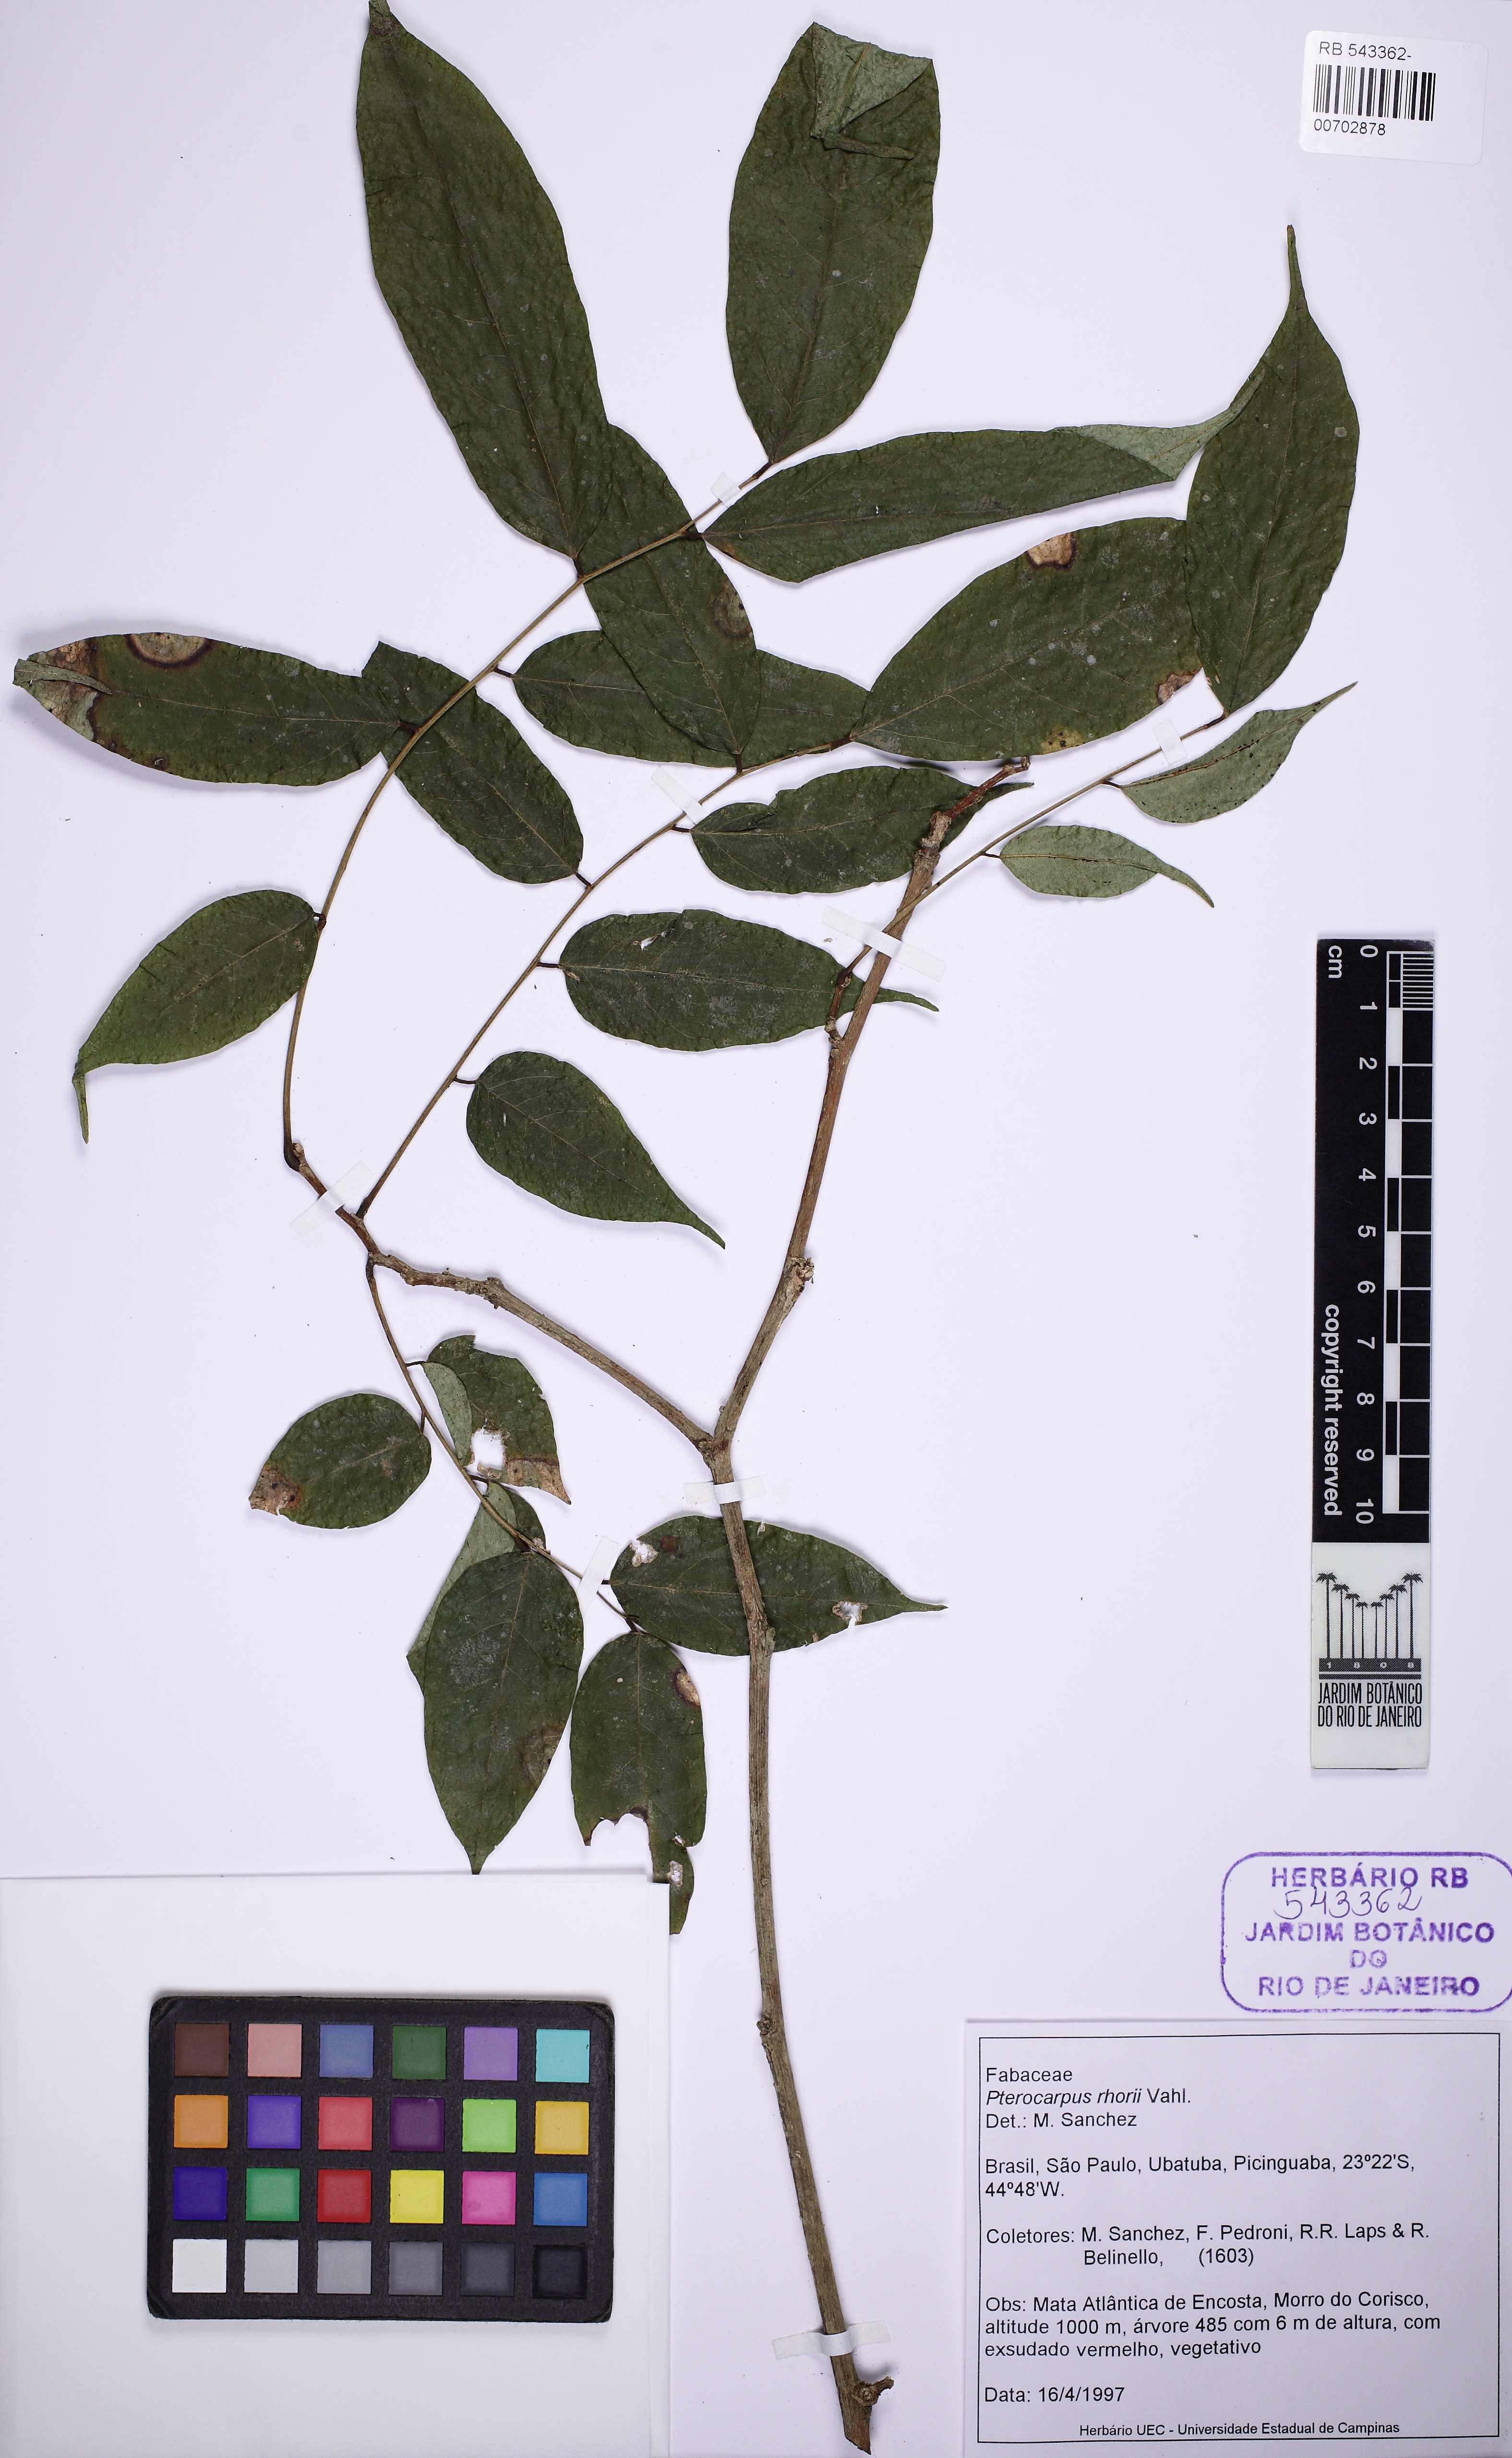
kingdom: Plantae
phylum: Tracheophyta
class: Magnoliopsida
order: Fabales
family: Fabaceae
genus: Pterocarpus
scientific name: Pterocarpus rohrii
